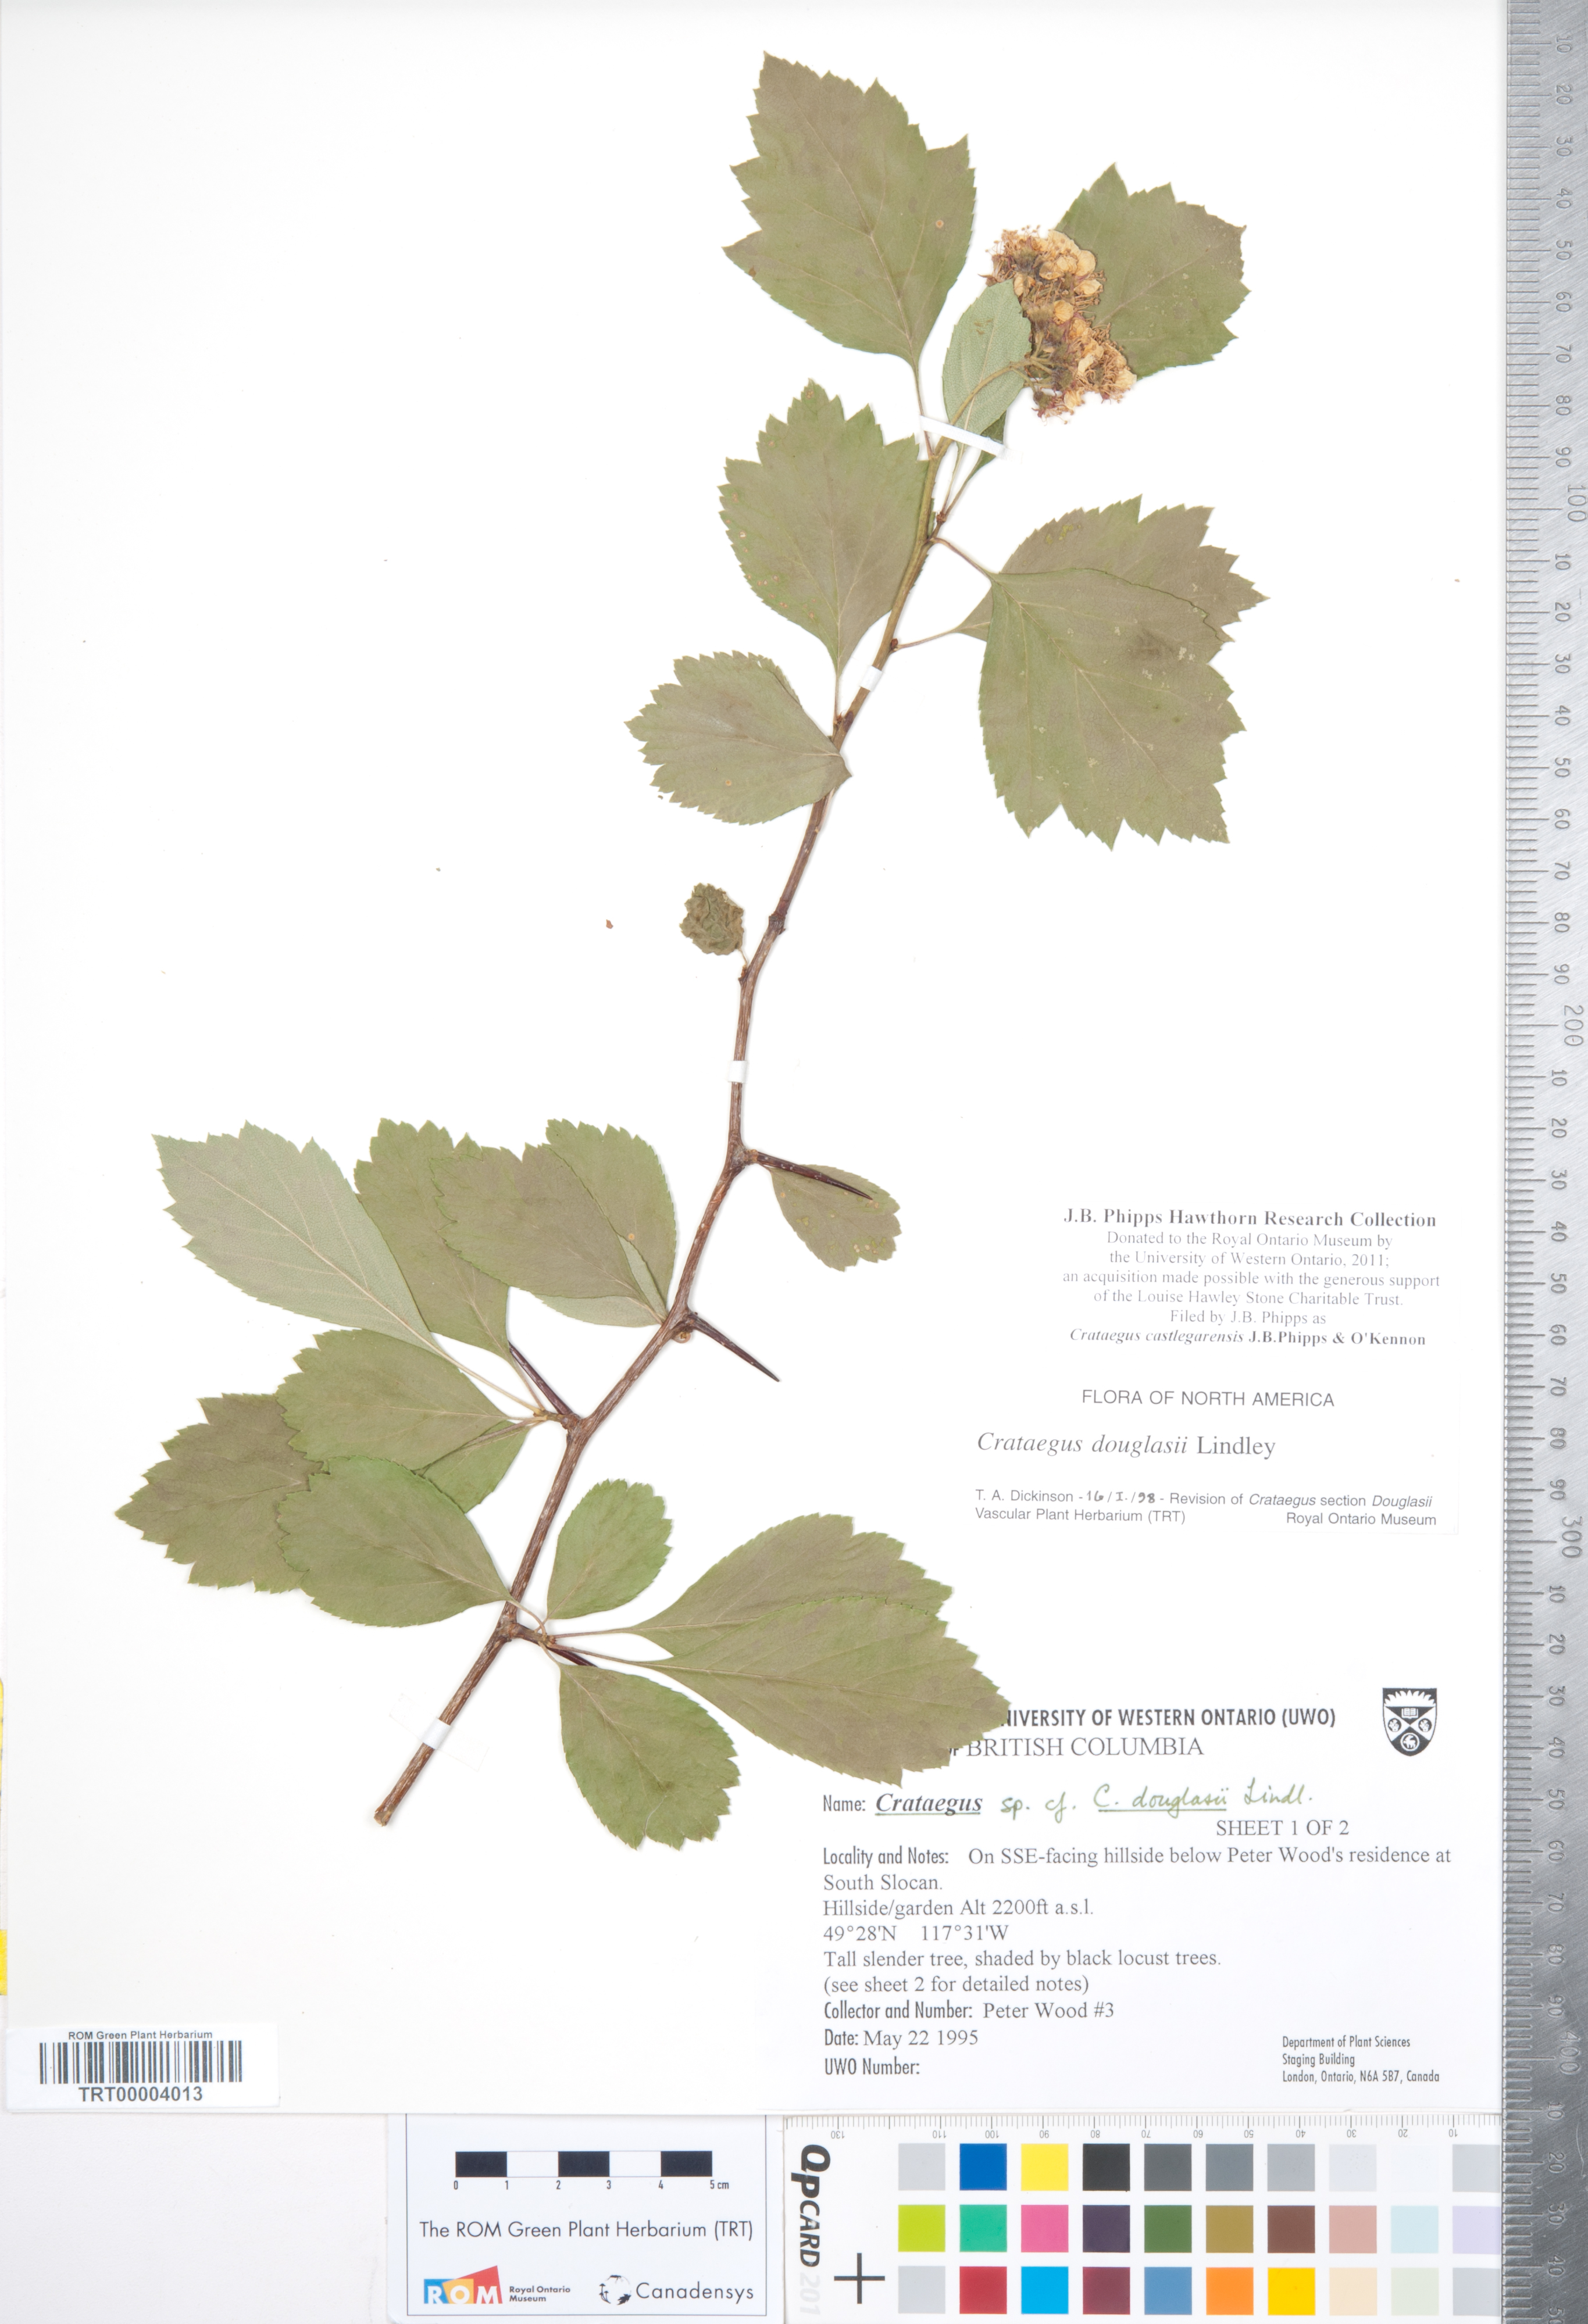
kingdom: Plantae
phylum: Tracheophyta
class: Magnoliopsida
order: Rosales
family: Rosaceae
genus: Crataegus
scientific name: Crataegus castlegarensis
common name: Castlegar hawthorn
